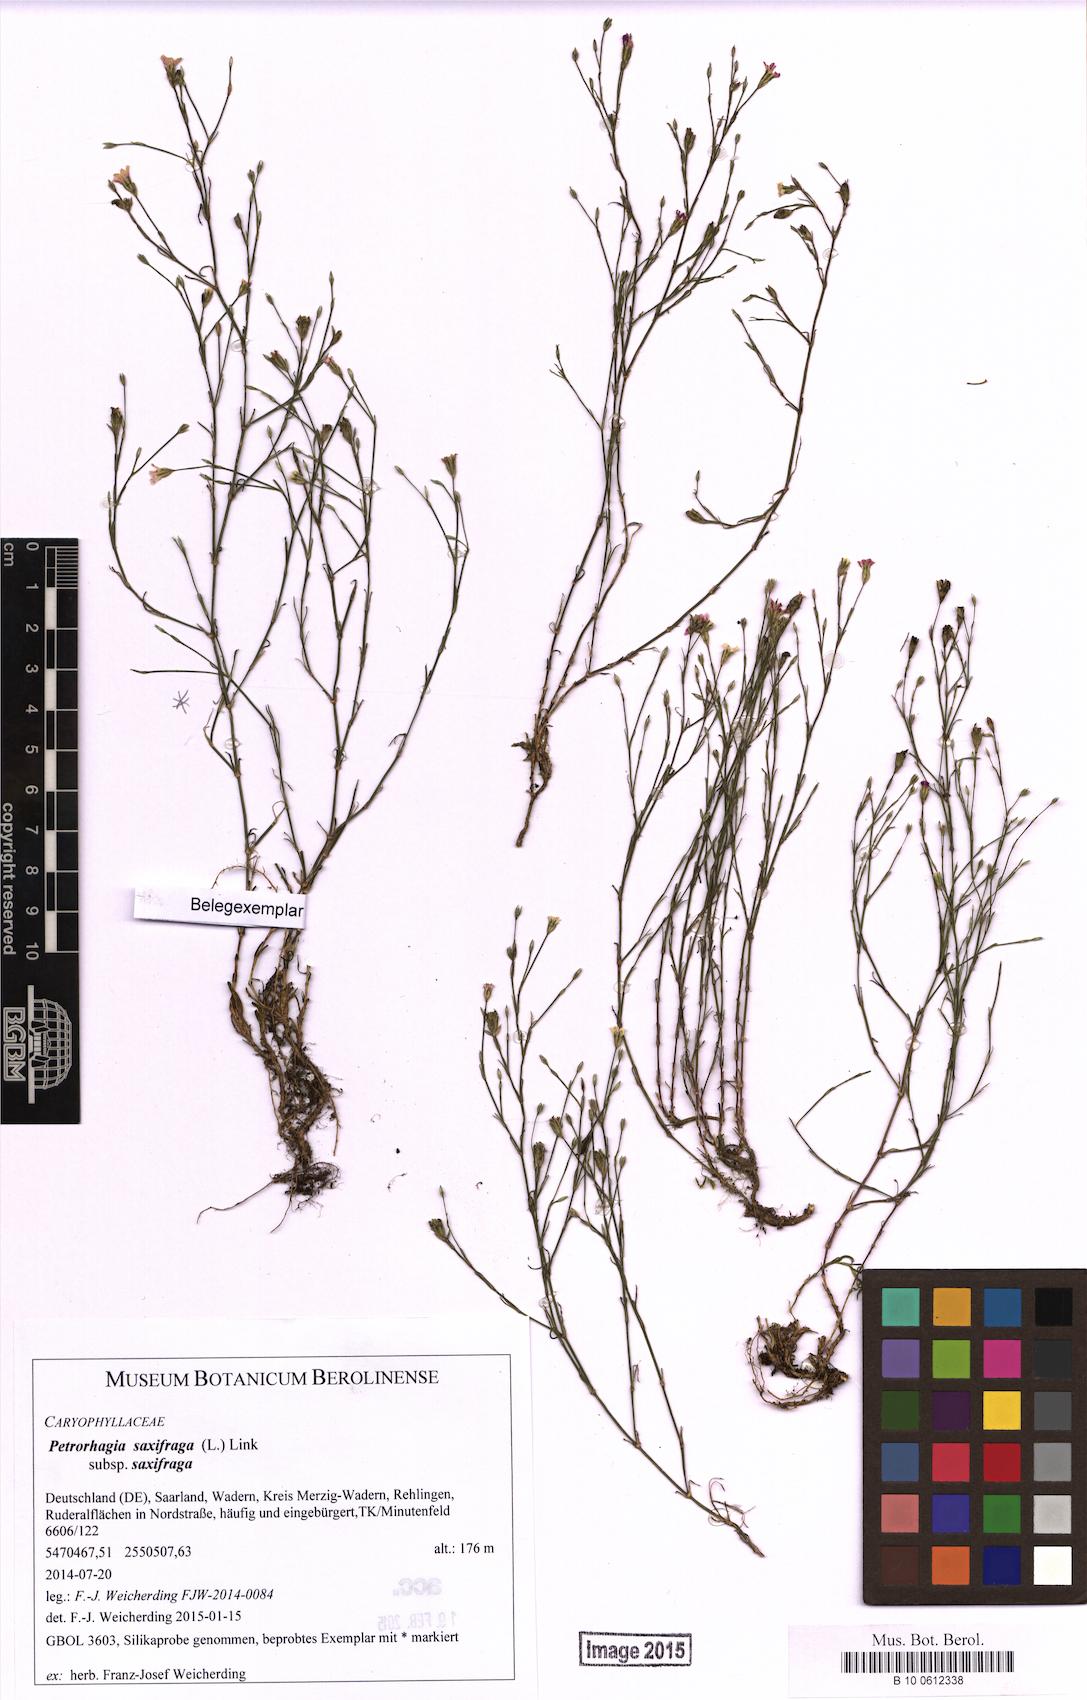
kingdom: Plantae
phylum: Tracheophyta
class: Magnoliopsida
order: Caryophyllales
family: Caryophyllaceae
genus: Petrorhagia
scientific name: Petrorhagia saxifraga
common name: Tunicflower
